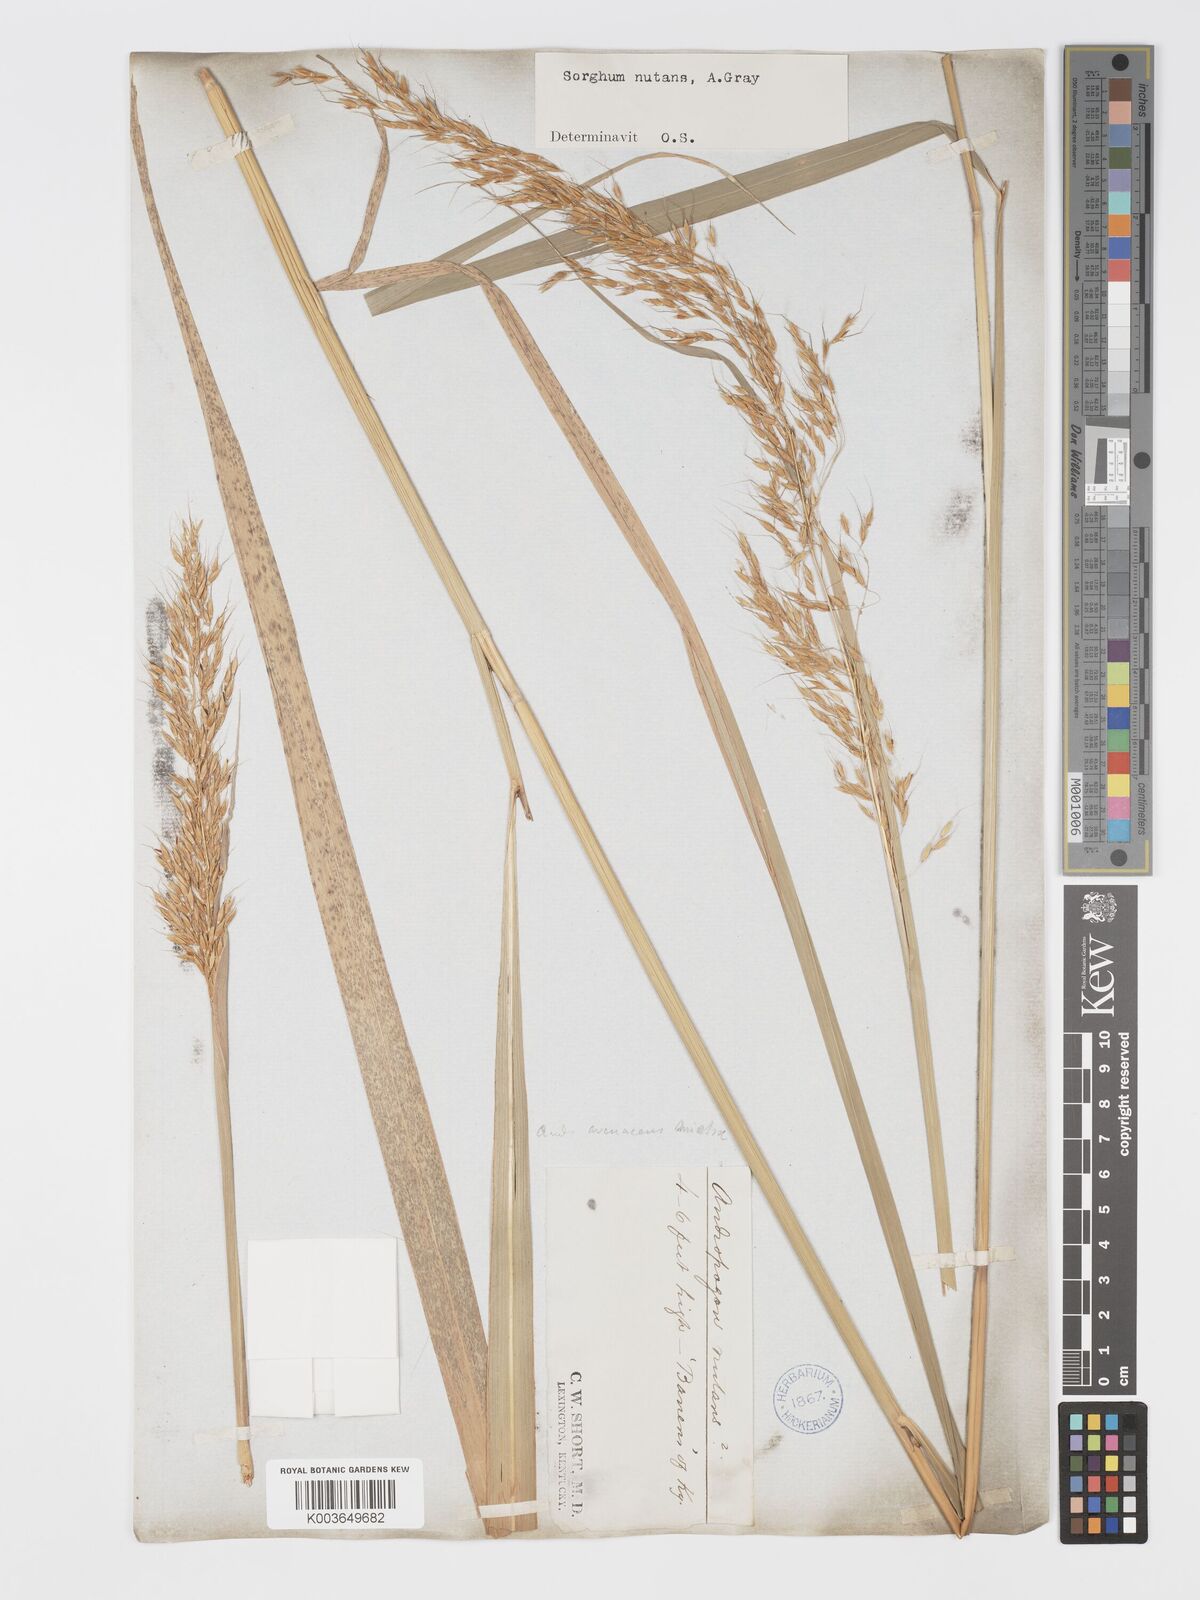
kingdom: Plantae
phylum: Tracheophyta
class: Liliopsida
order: Poales
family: Poaceae
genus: Sorghastrum
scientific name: Sorghastrum nutans
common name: Indian grass
